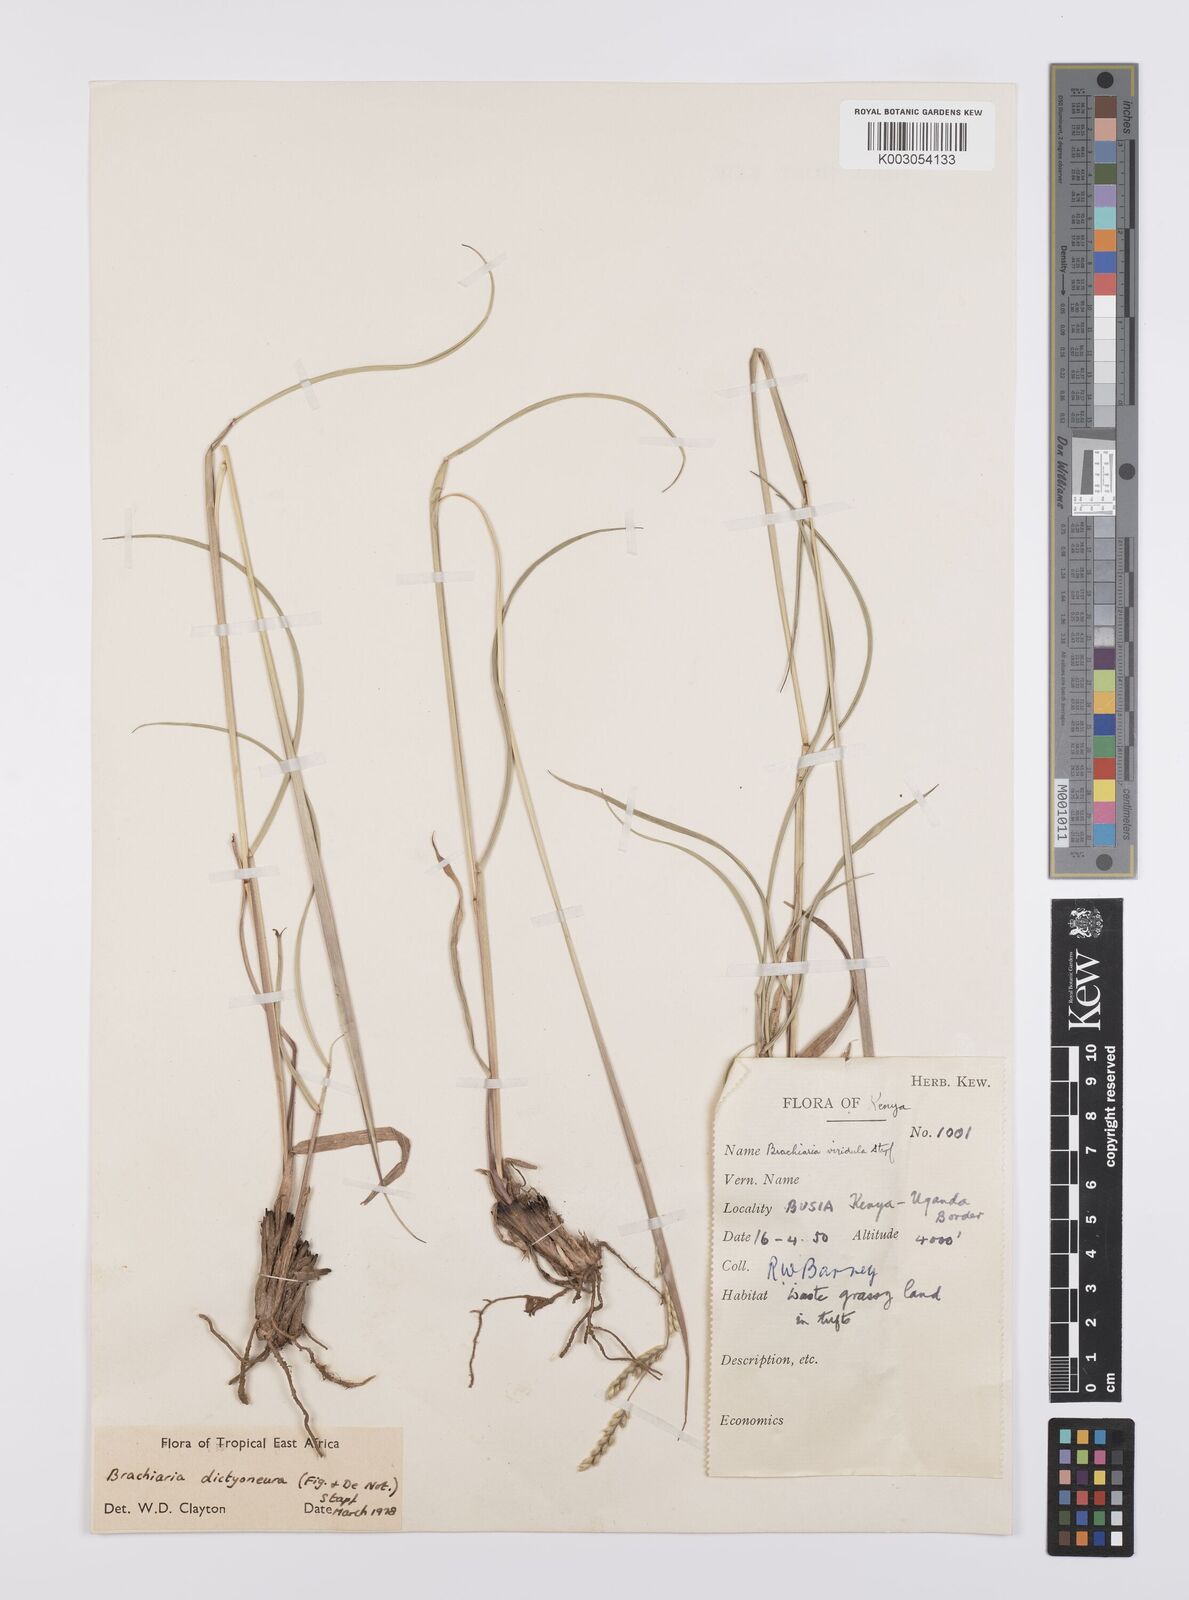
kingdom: Plantae
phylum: Tracheophyta
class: Liliopsida
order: Poales
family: Poaceae
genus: Urochloa
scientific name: Urochloa dictyoneura
